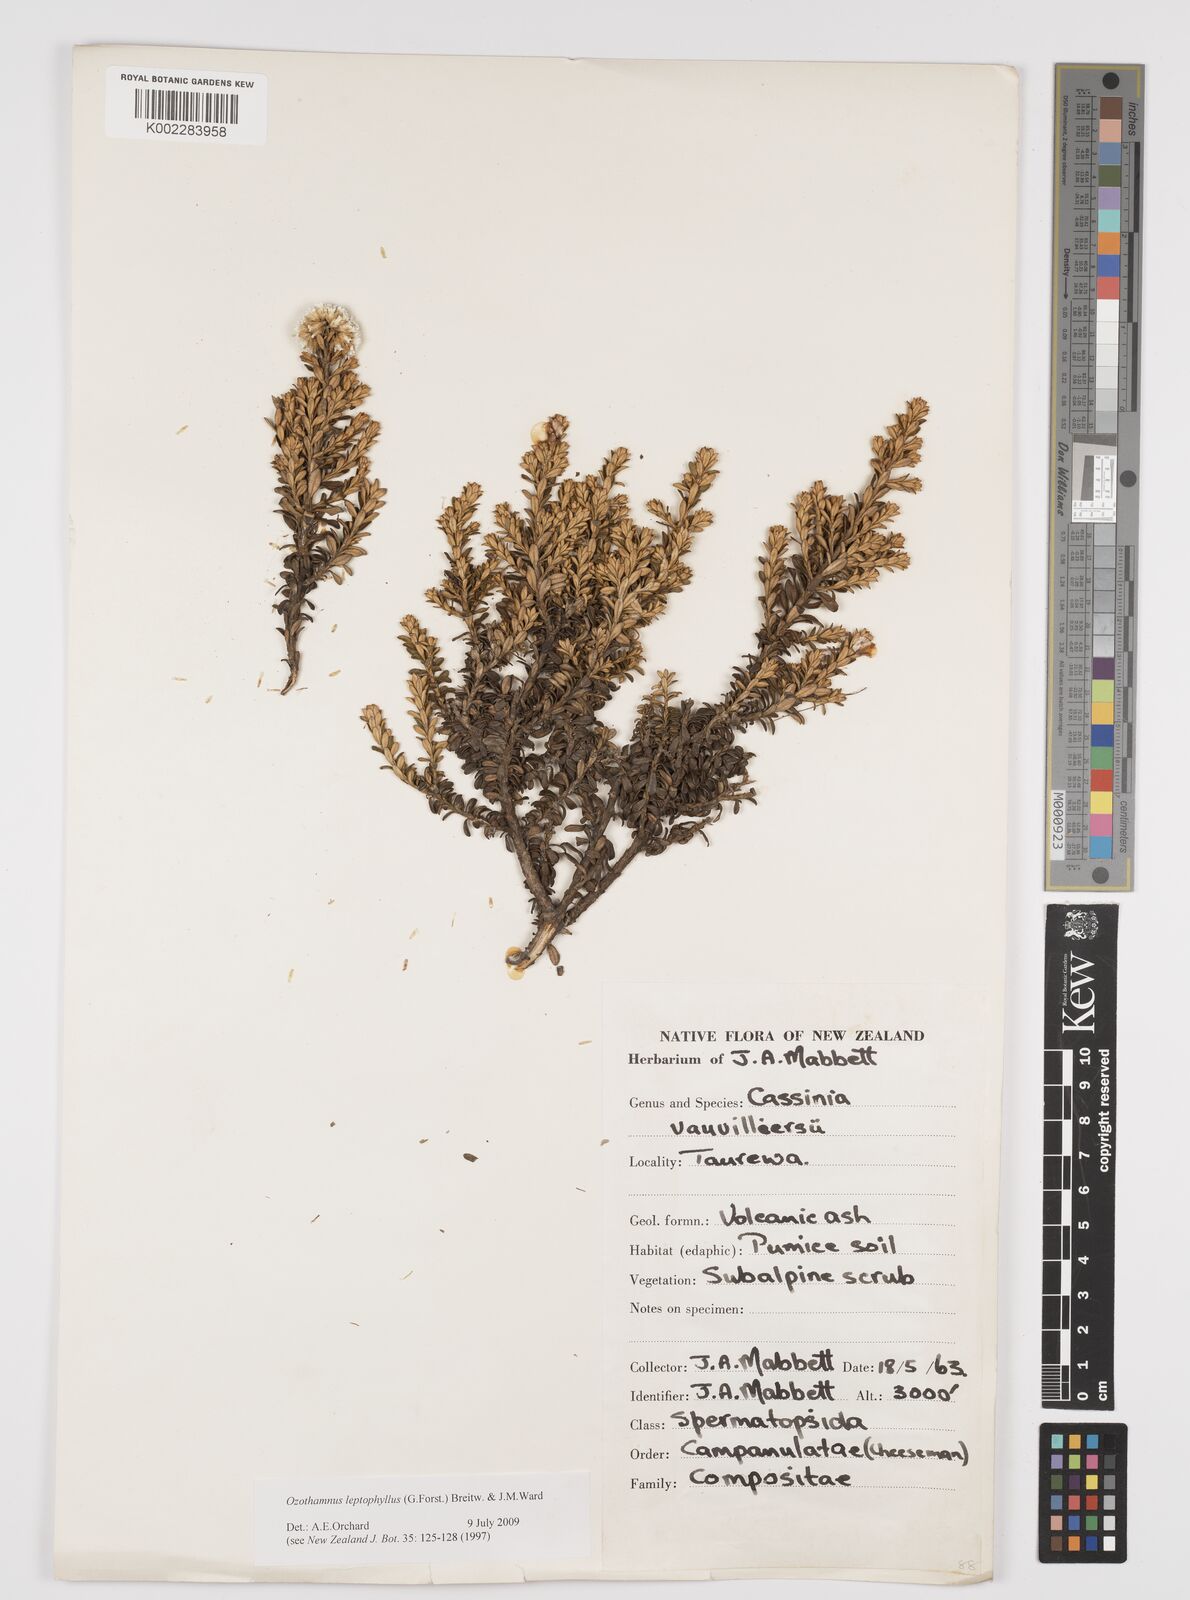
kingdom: Plantae
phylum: Tracheophyta
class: Magnoliopsida
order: Asterales
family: Asteraceae
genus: Ozothamnus
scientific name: Ozothamnus leptophyllus
